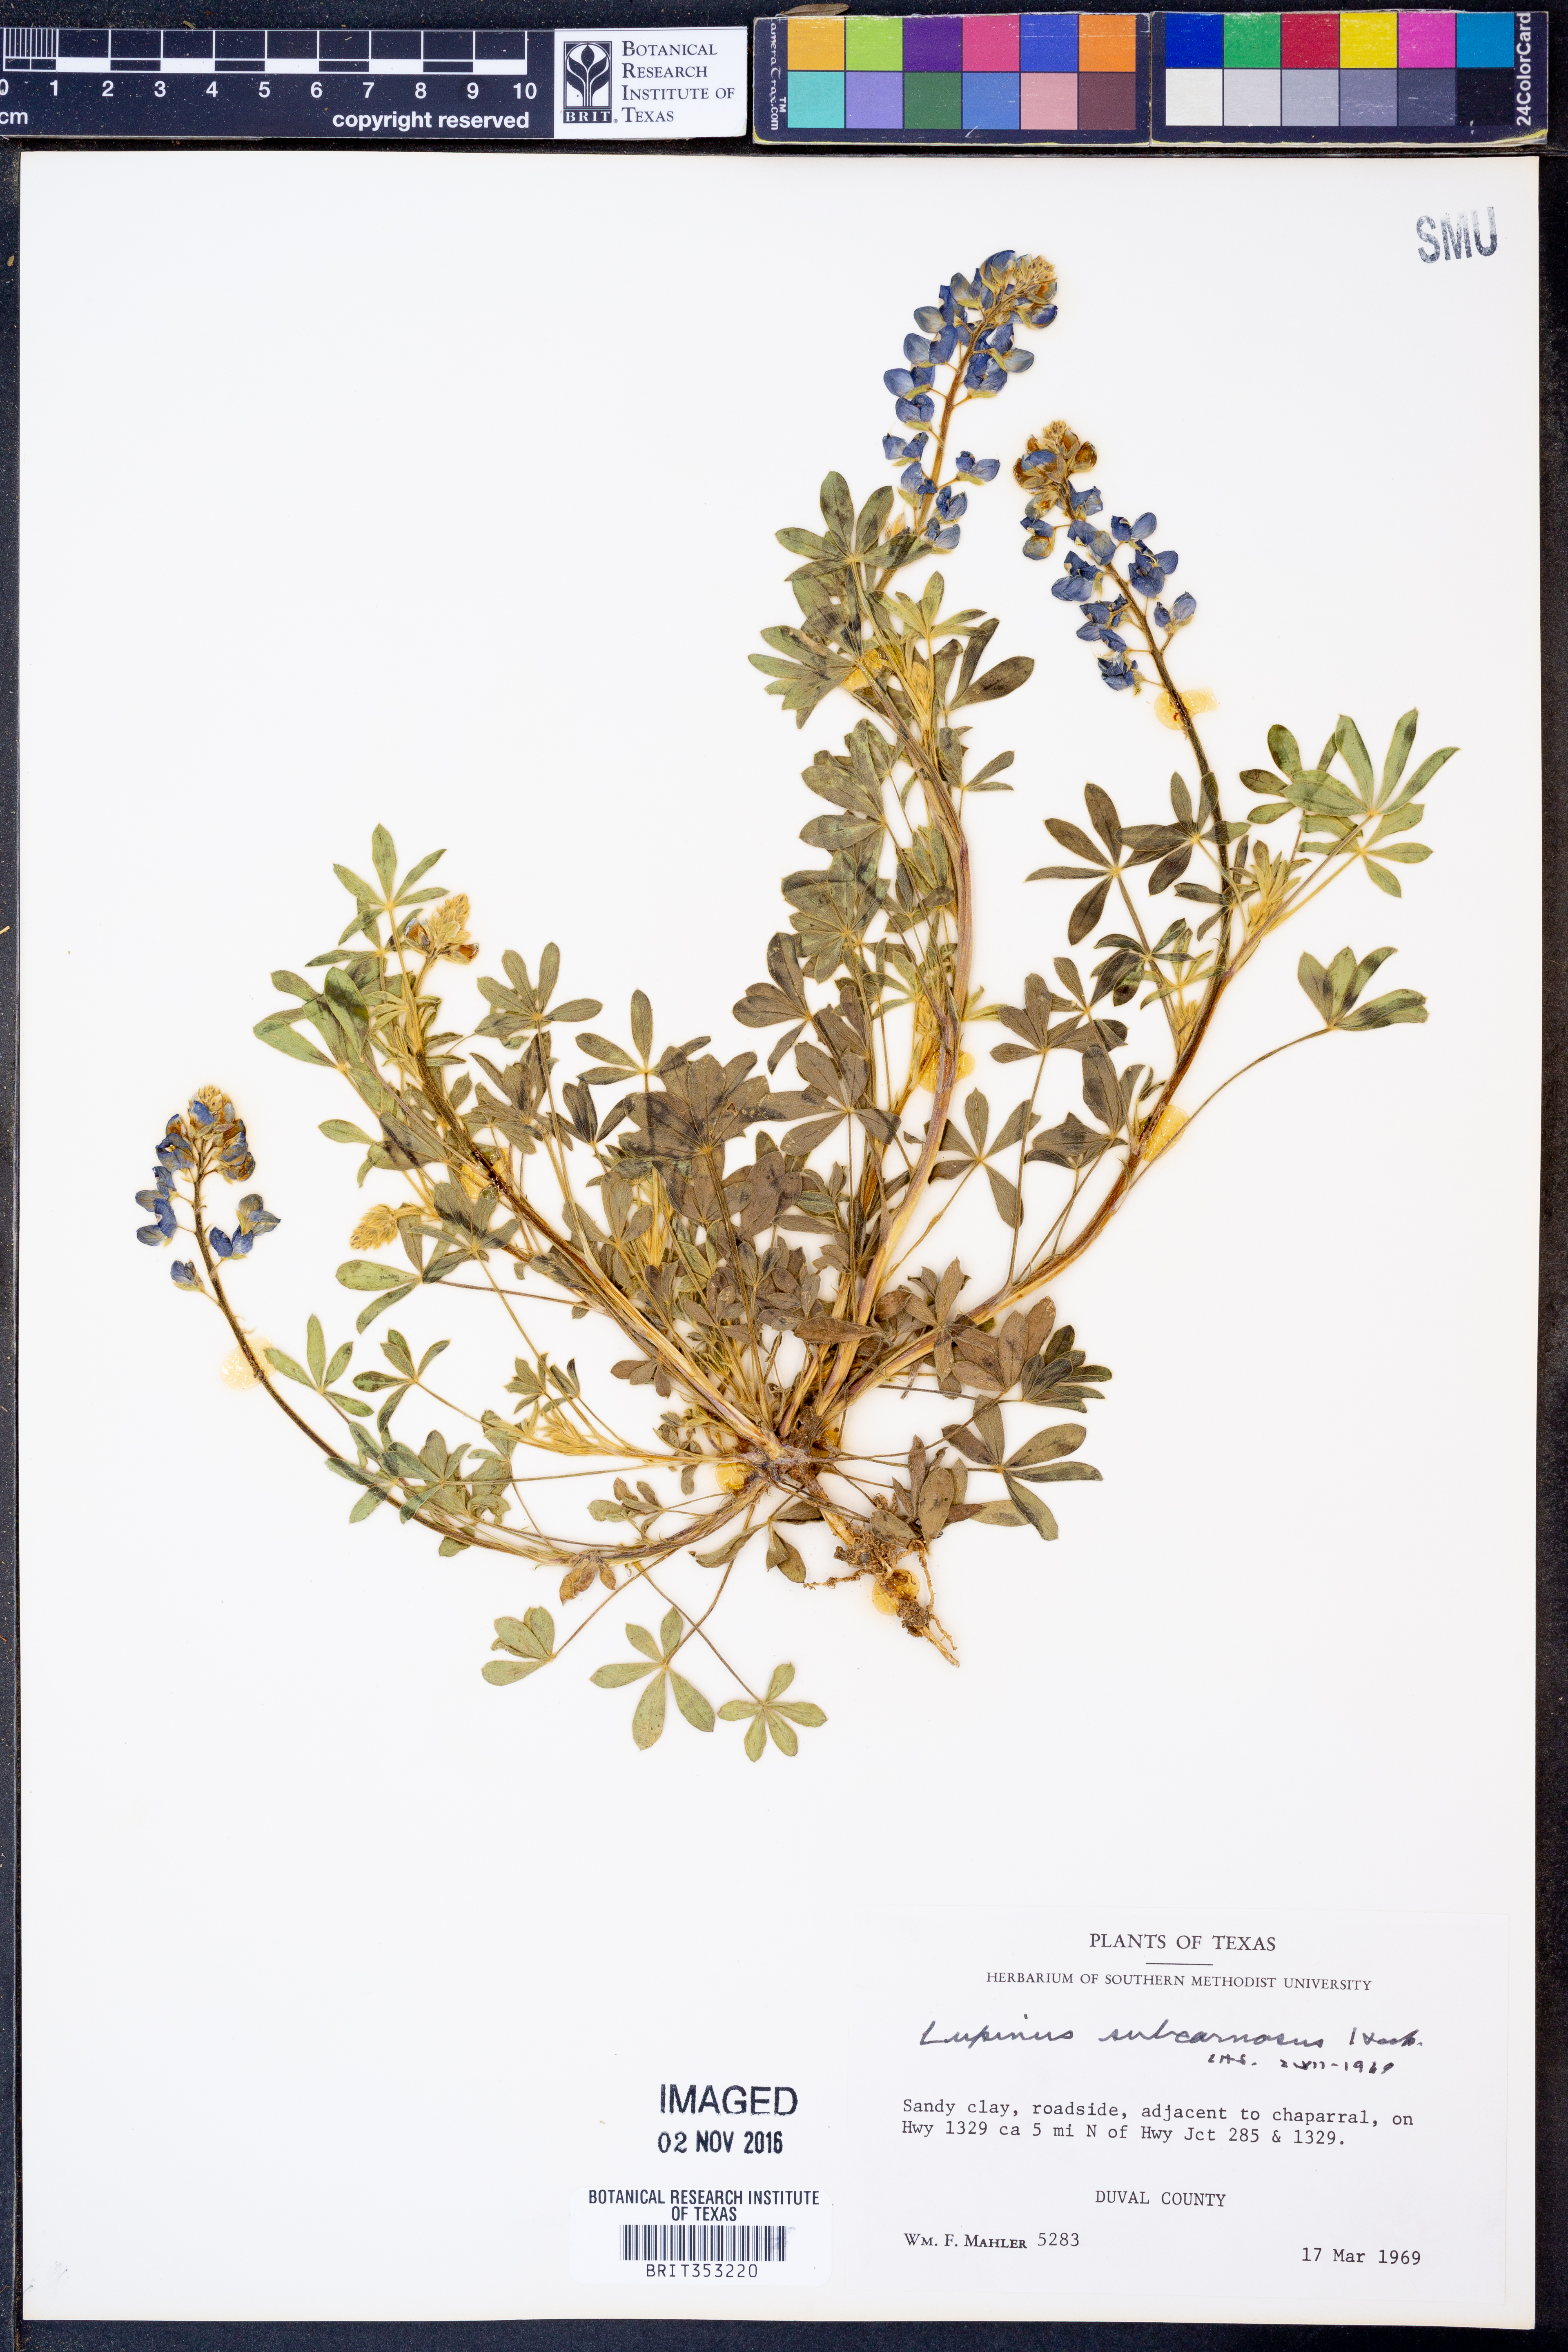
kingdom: Plantae
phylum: Tracheophyta
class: Magnoliopsida
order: Fabales
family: Fabaceae
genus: Lupinus
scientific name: Lupinus subcarnosus
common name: Texas bluebonnet
